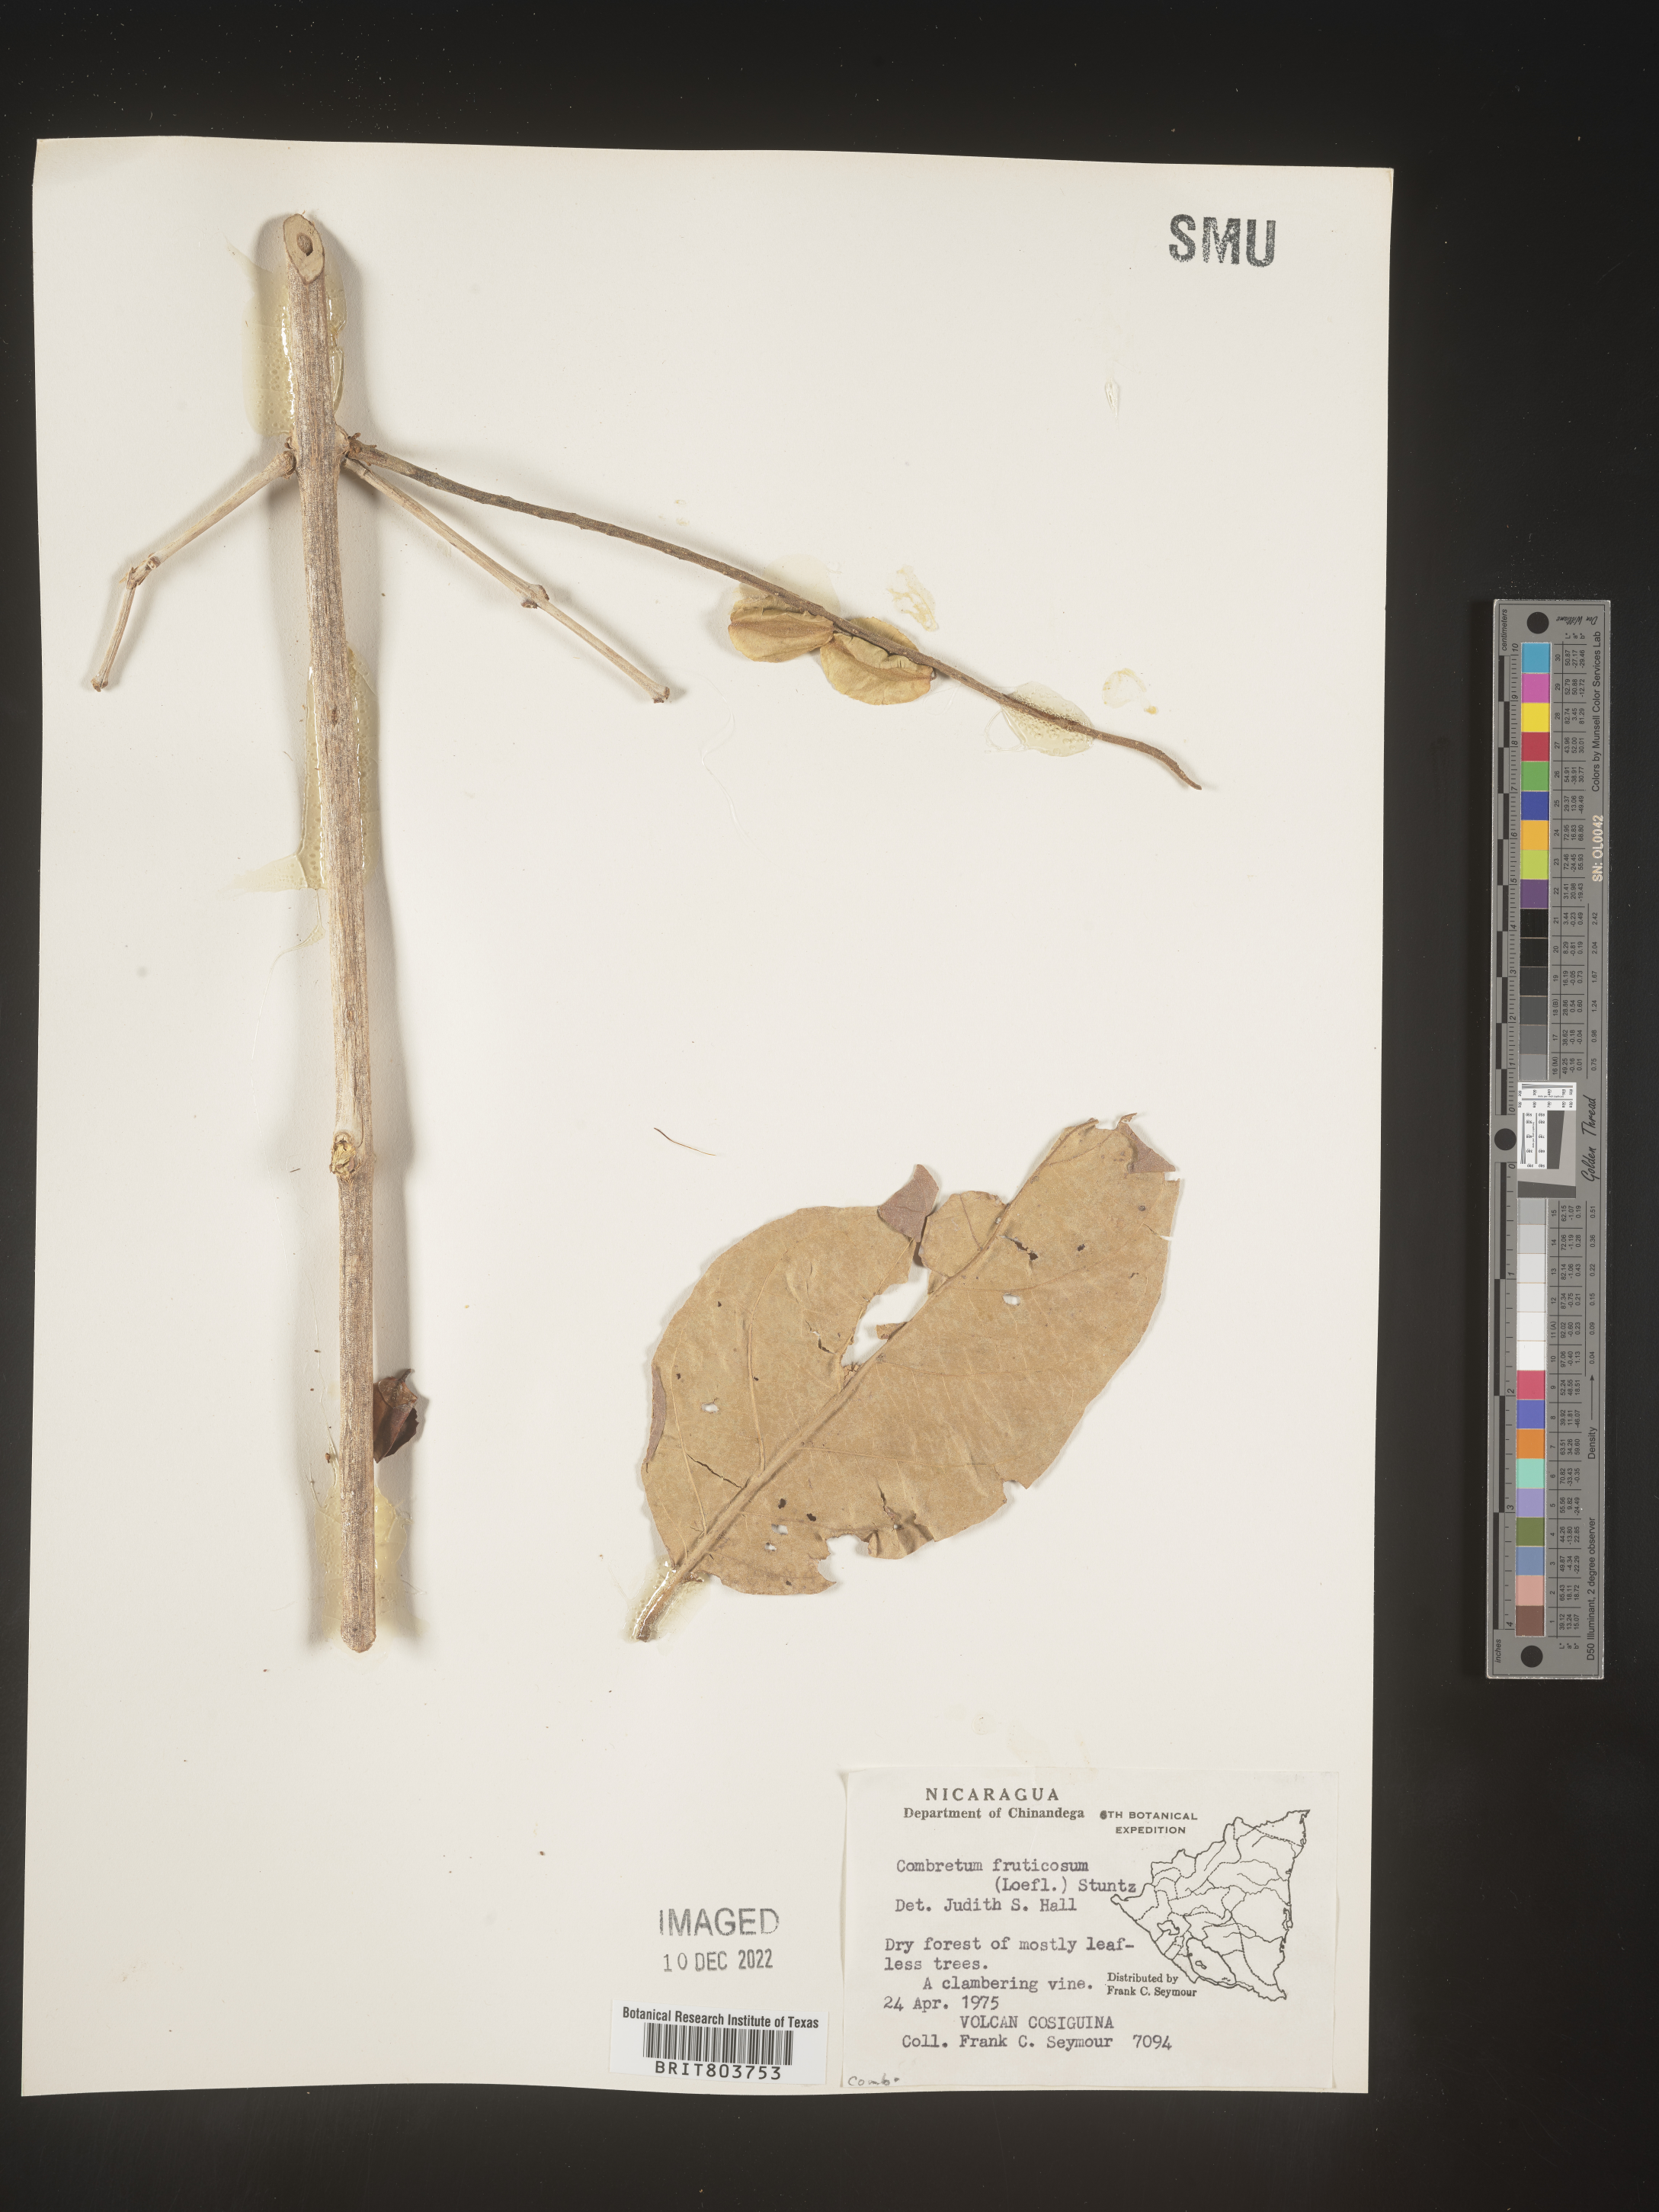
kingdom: Plantae
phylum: Tracheophyta
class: Magnoliopsida
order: Myrtales
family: Combretaceae
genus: Combretum
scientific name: Combretum
